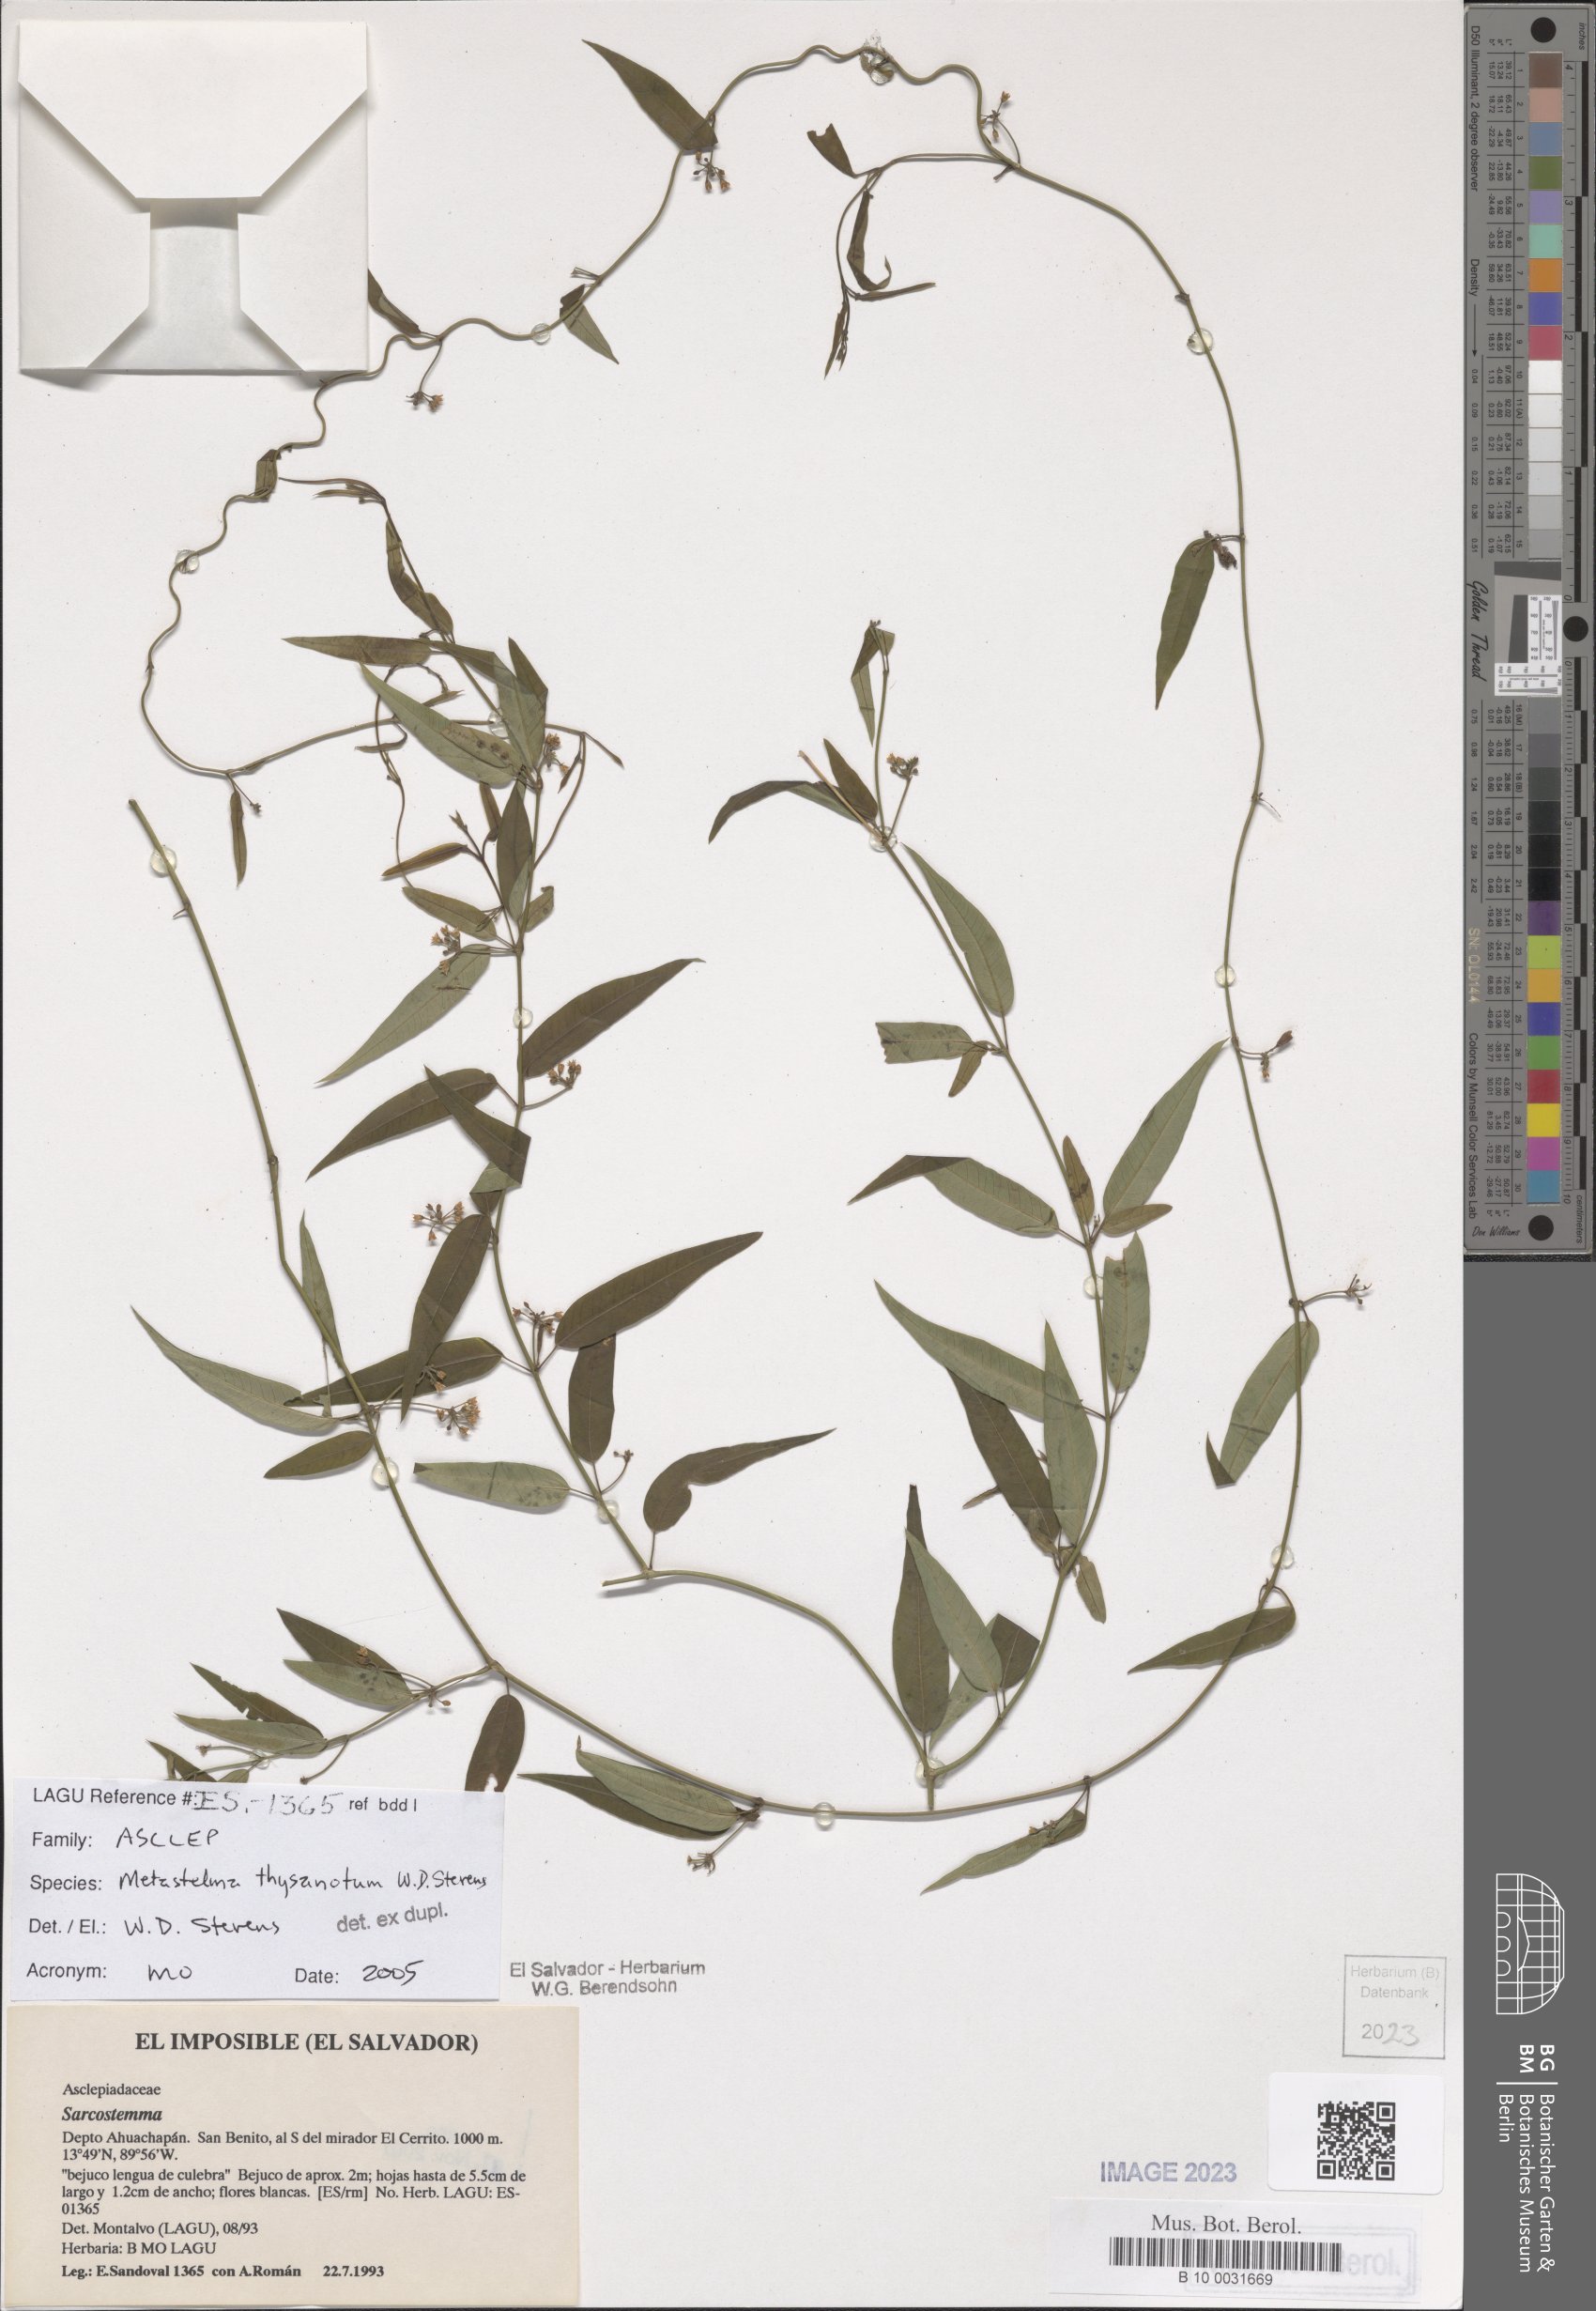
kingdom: Plantae
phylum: Tracheophyta
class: Magnoliopsida
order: Gentianales
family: Apocynaceae
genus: Metastelma
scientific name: Metastelma thysanotum
